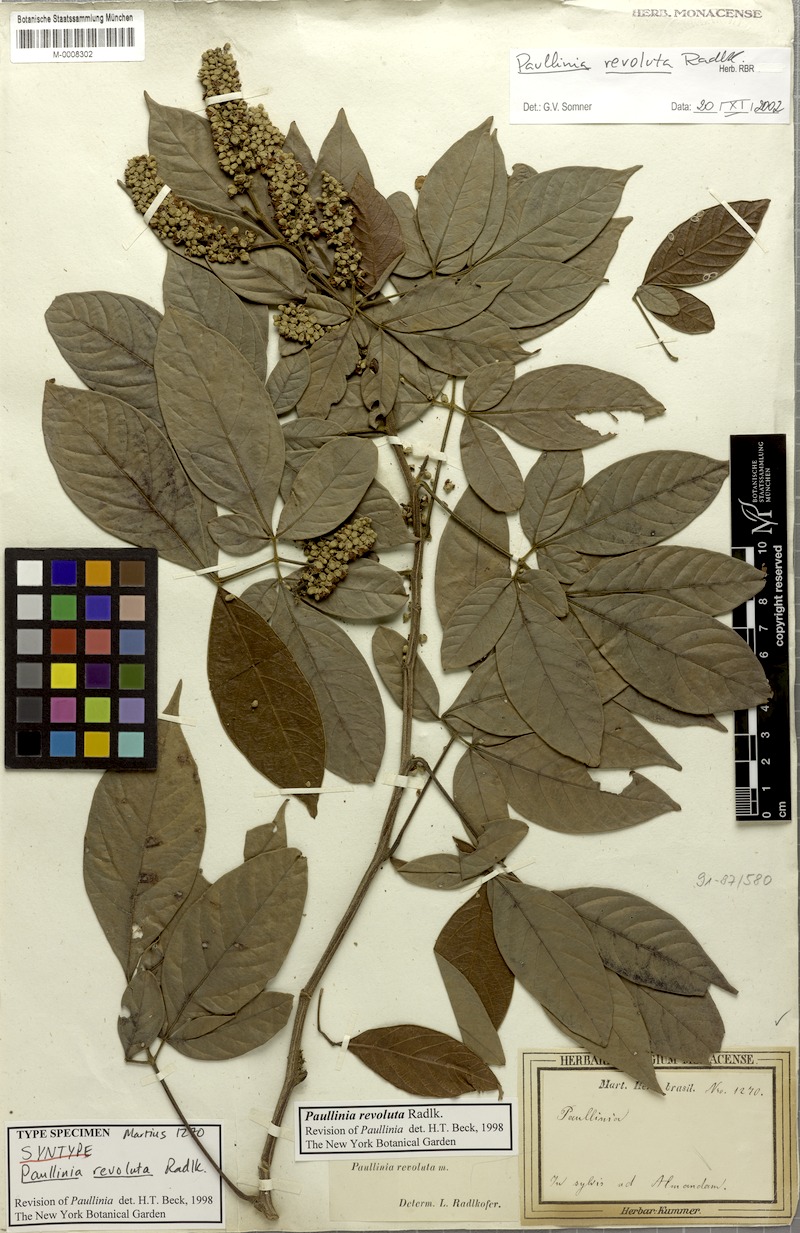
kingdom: Plantae
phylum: Tracheophyta
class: Magnoliopsida
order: Sapindales
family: Sapindaceae
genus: Paullinia
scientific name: Paullinia revoluta
